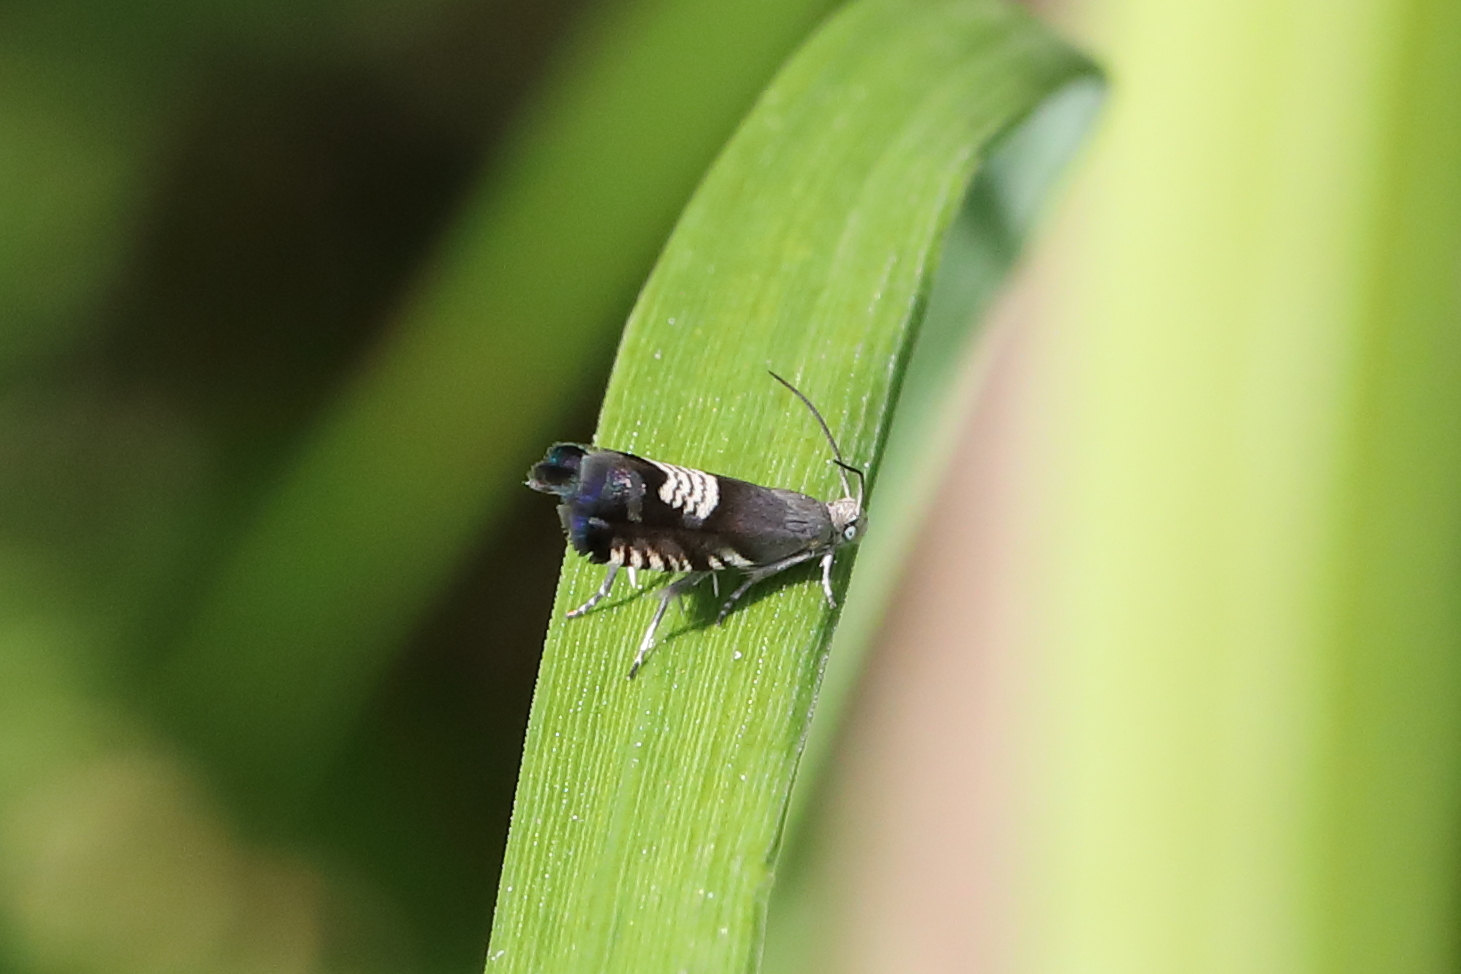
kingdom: Animalia
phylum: Arthropoda
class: Insecta
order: Lepidoptera
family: Tortricidae
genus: Grapholita
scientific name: Grapholita compositella
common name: Triple-stripe piercer
